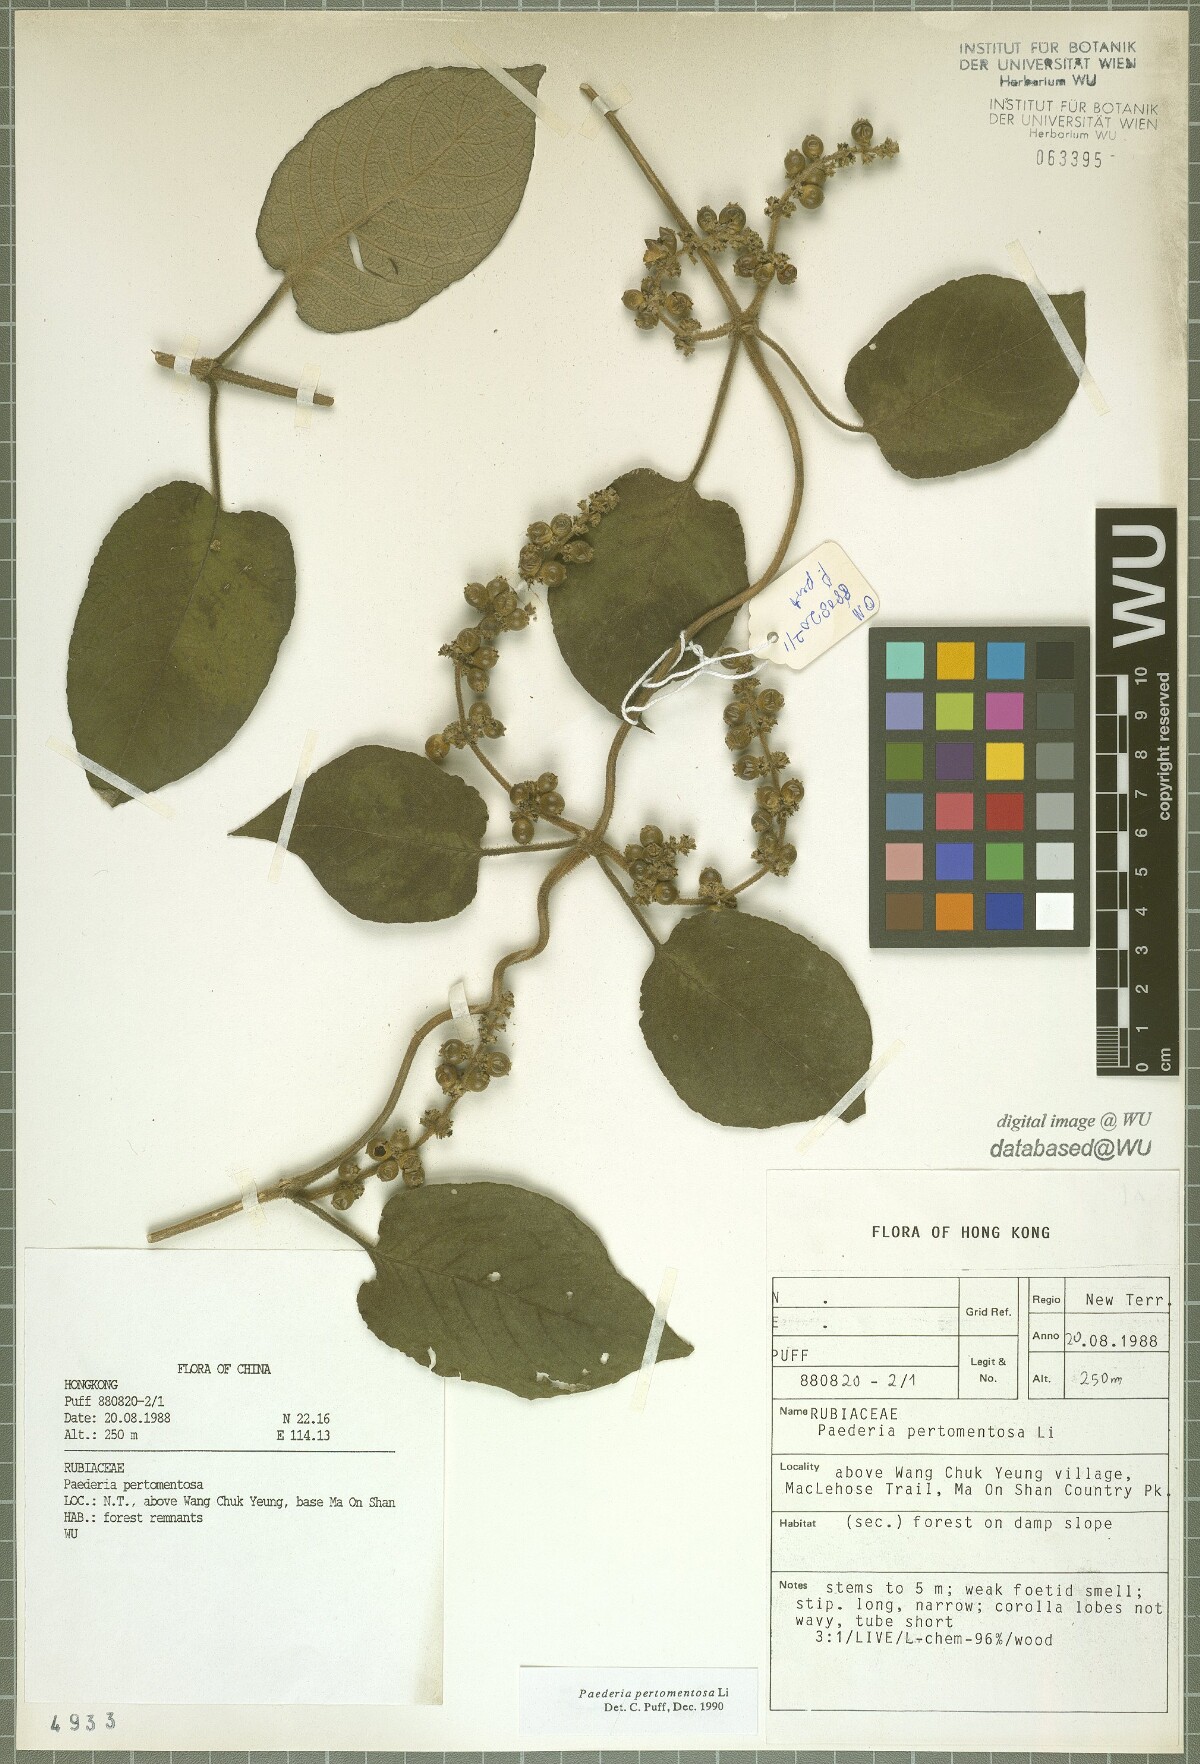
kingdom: Plantae
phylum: Tracheophyta
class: Magnoliopsida
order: Gentianales
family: Rubiaceae
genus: Paederia
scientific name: Paederia pertomentosa
